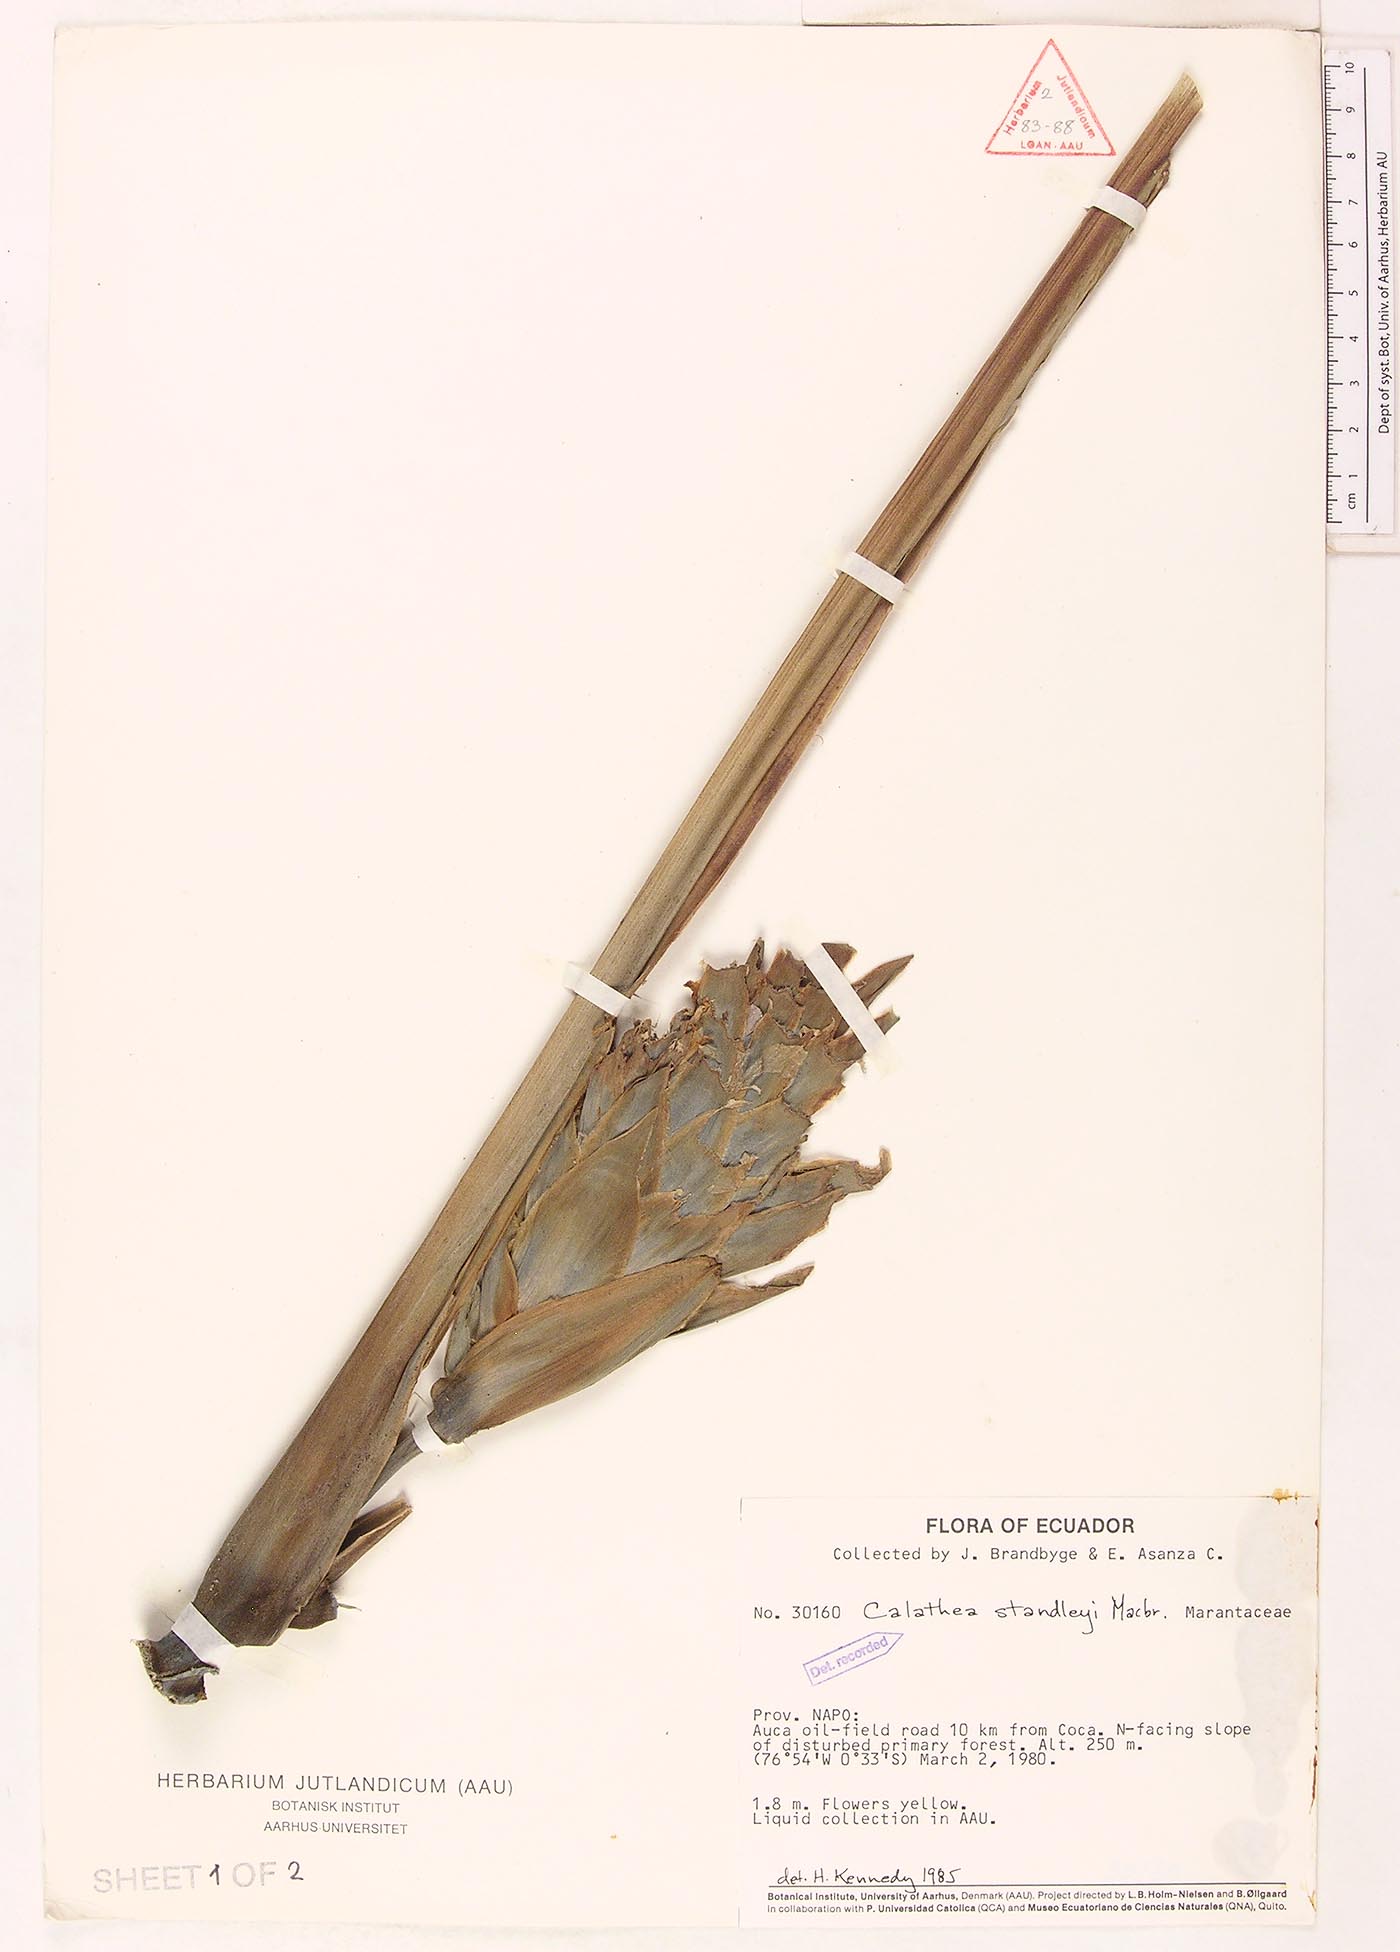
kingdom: Plantae
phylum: Tracheophyta
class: Liliopsida
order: Zingiberales
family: Marantaceae
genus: Goeppertia
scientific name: Goeppertia standleyi
